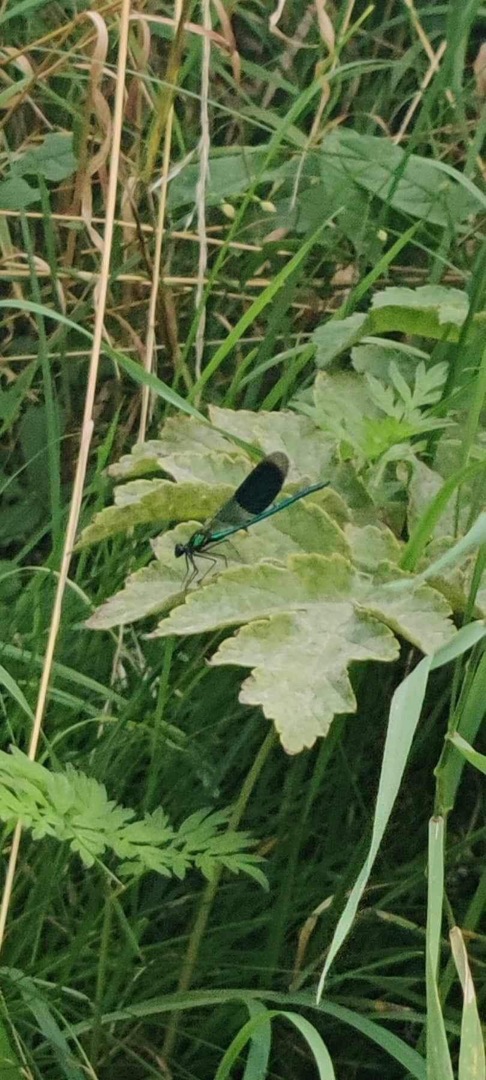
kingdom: Animalia
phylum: Arthropoda
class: Insecta
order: Odonata
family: Calopterygidae
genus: Calopteryx
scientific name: Calopteryx splendens
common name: Blåbåndet pragtvandnymfe
